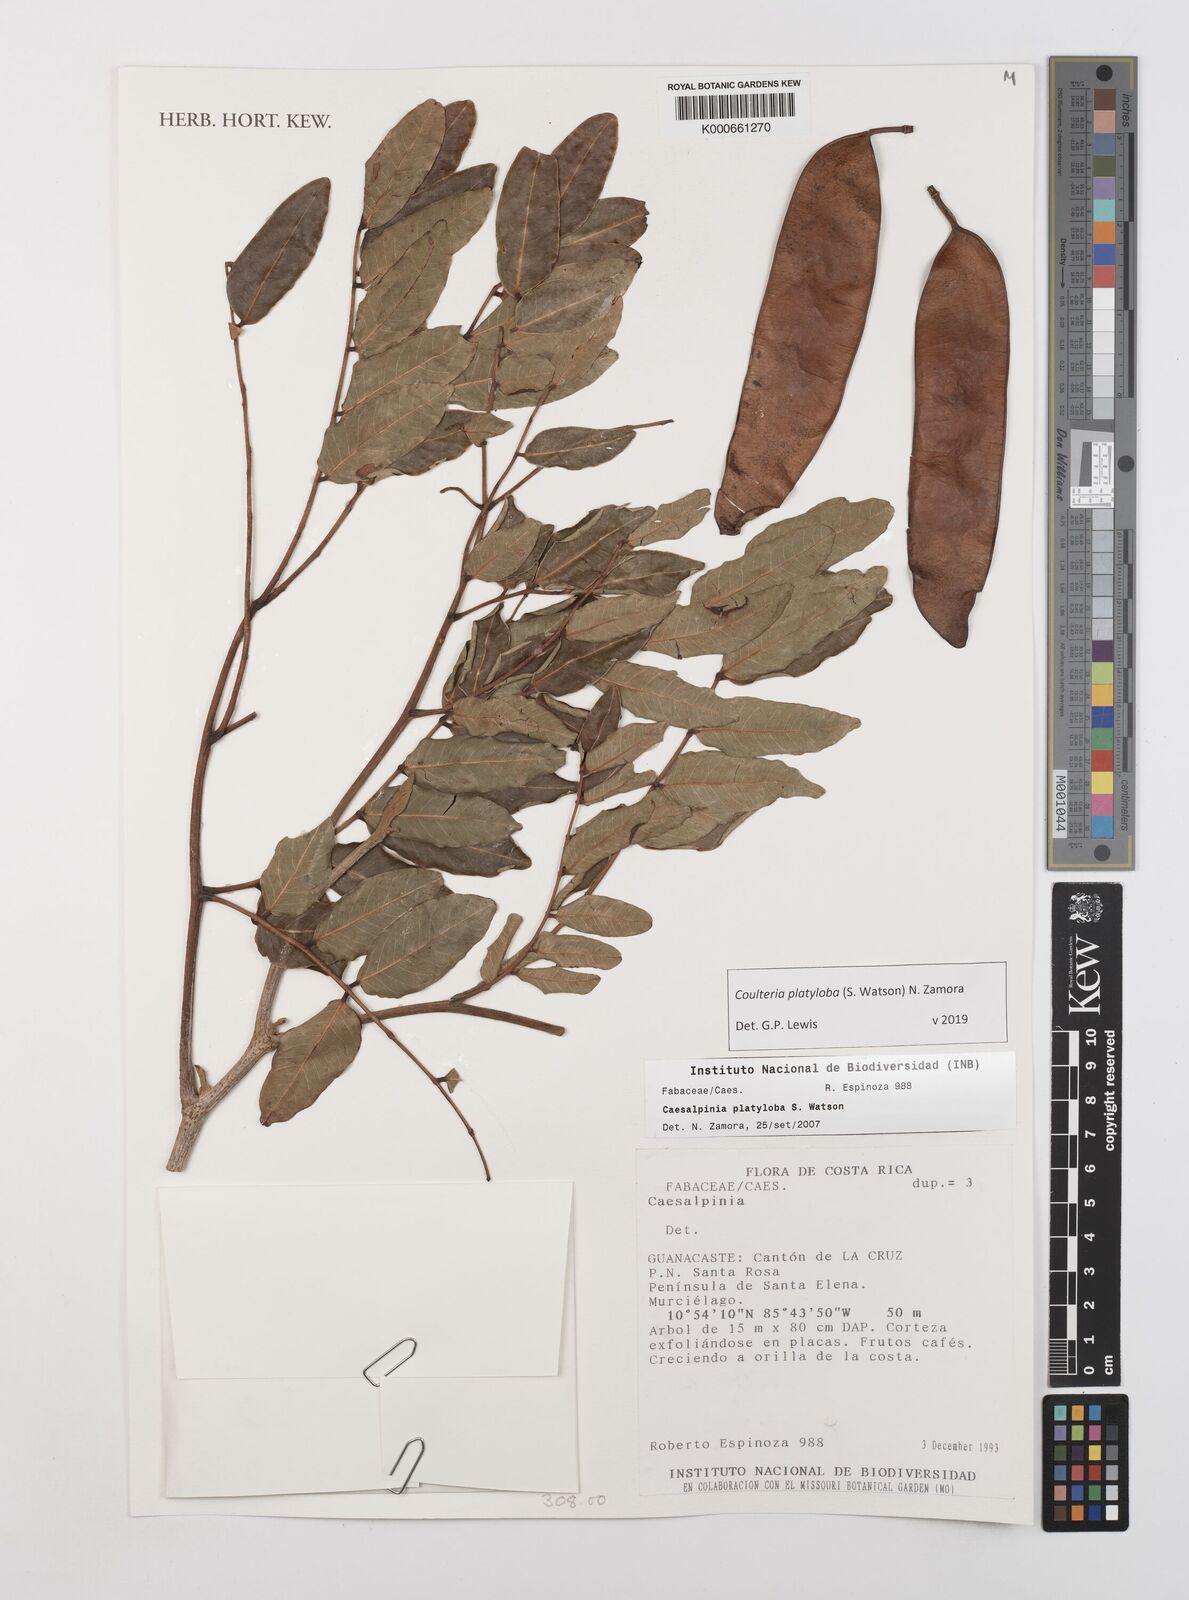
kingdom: Plantae
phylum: Tracheophyta
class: Magnoliopsida
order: Fabales
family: Fabaceae
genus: Coulteria
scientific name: Coulteria platyloba
